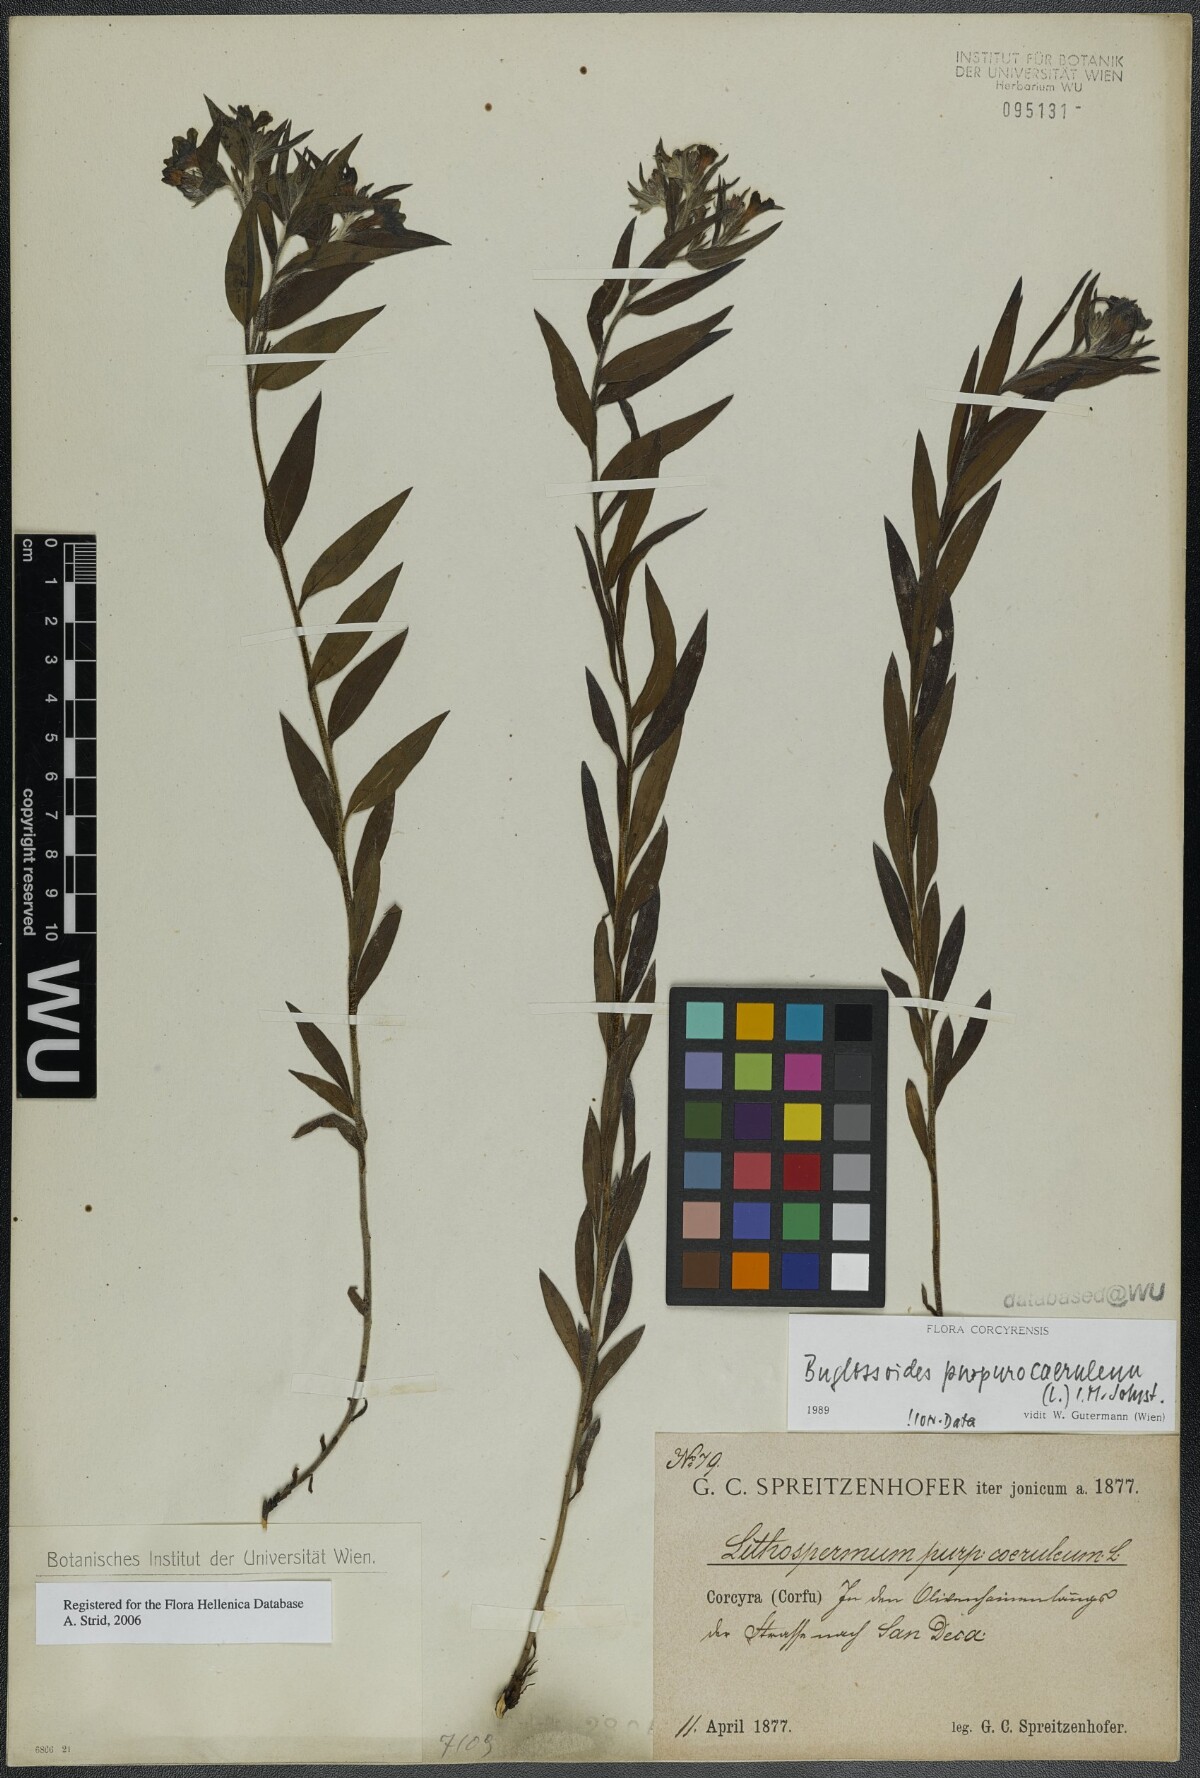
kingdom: Plantae
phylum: Tracheophyta
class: Magnoliopsida
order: Boraginales
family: Boraginaceae
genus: Aegonychon
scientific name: Aegonychon purpurocaeruleum
